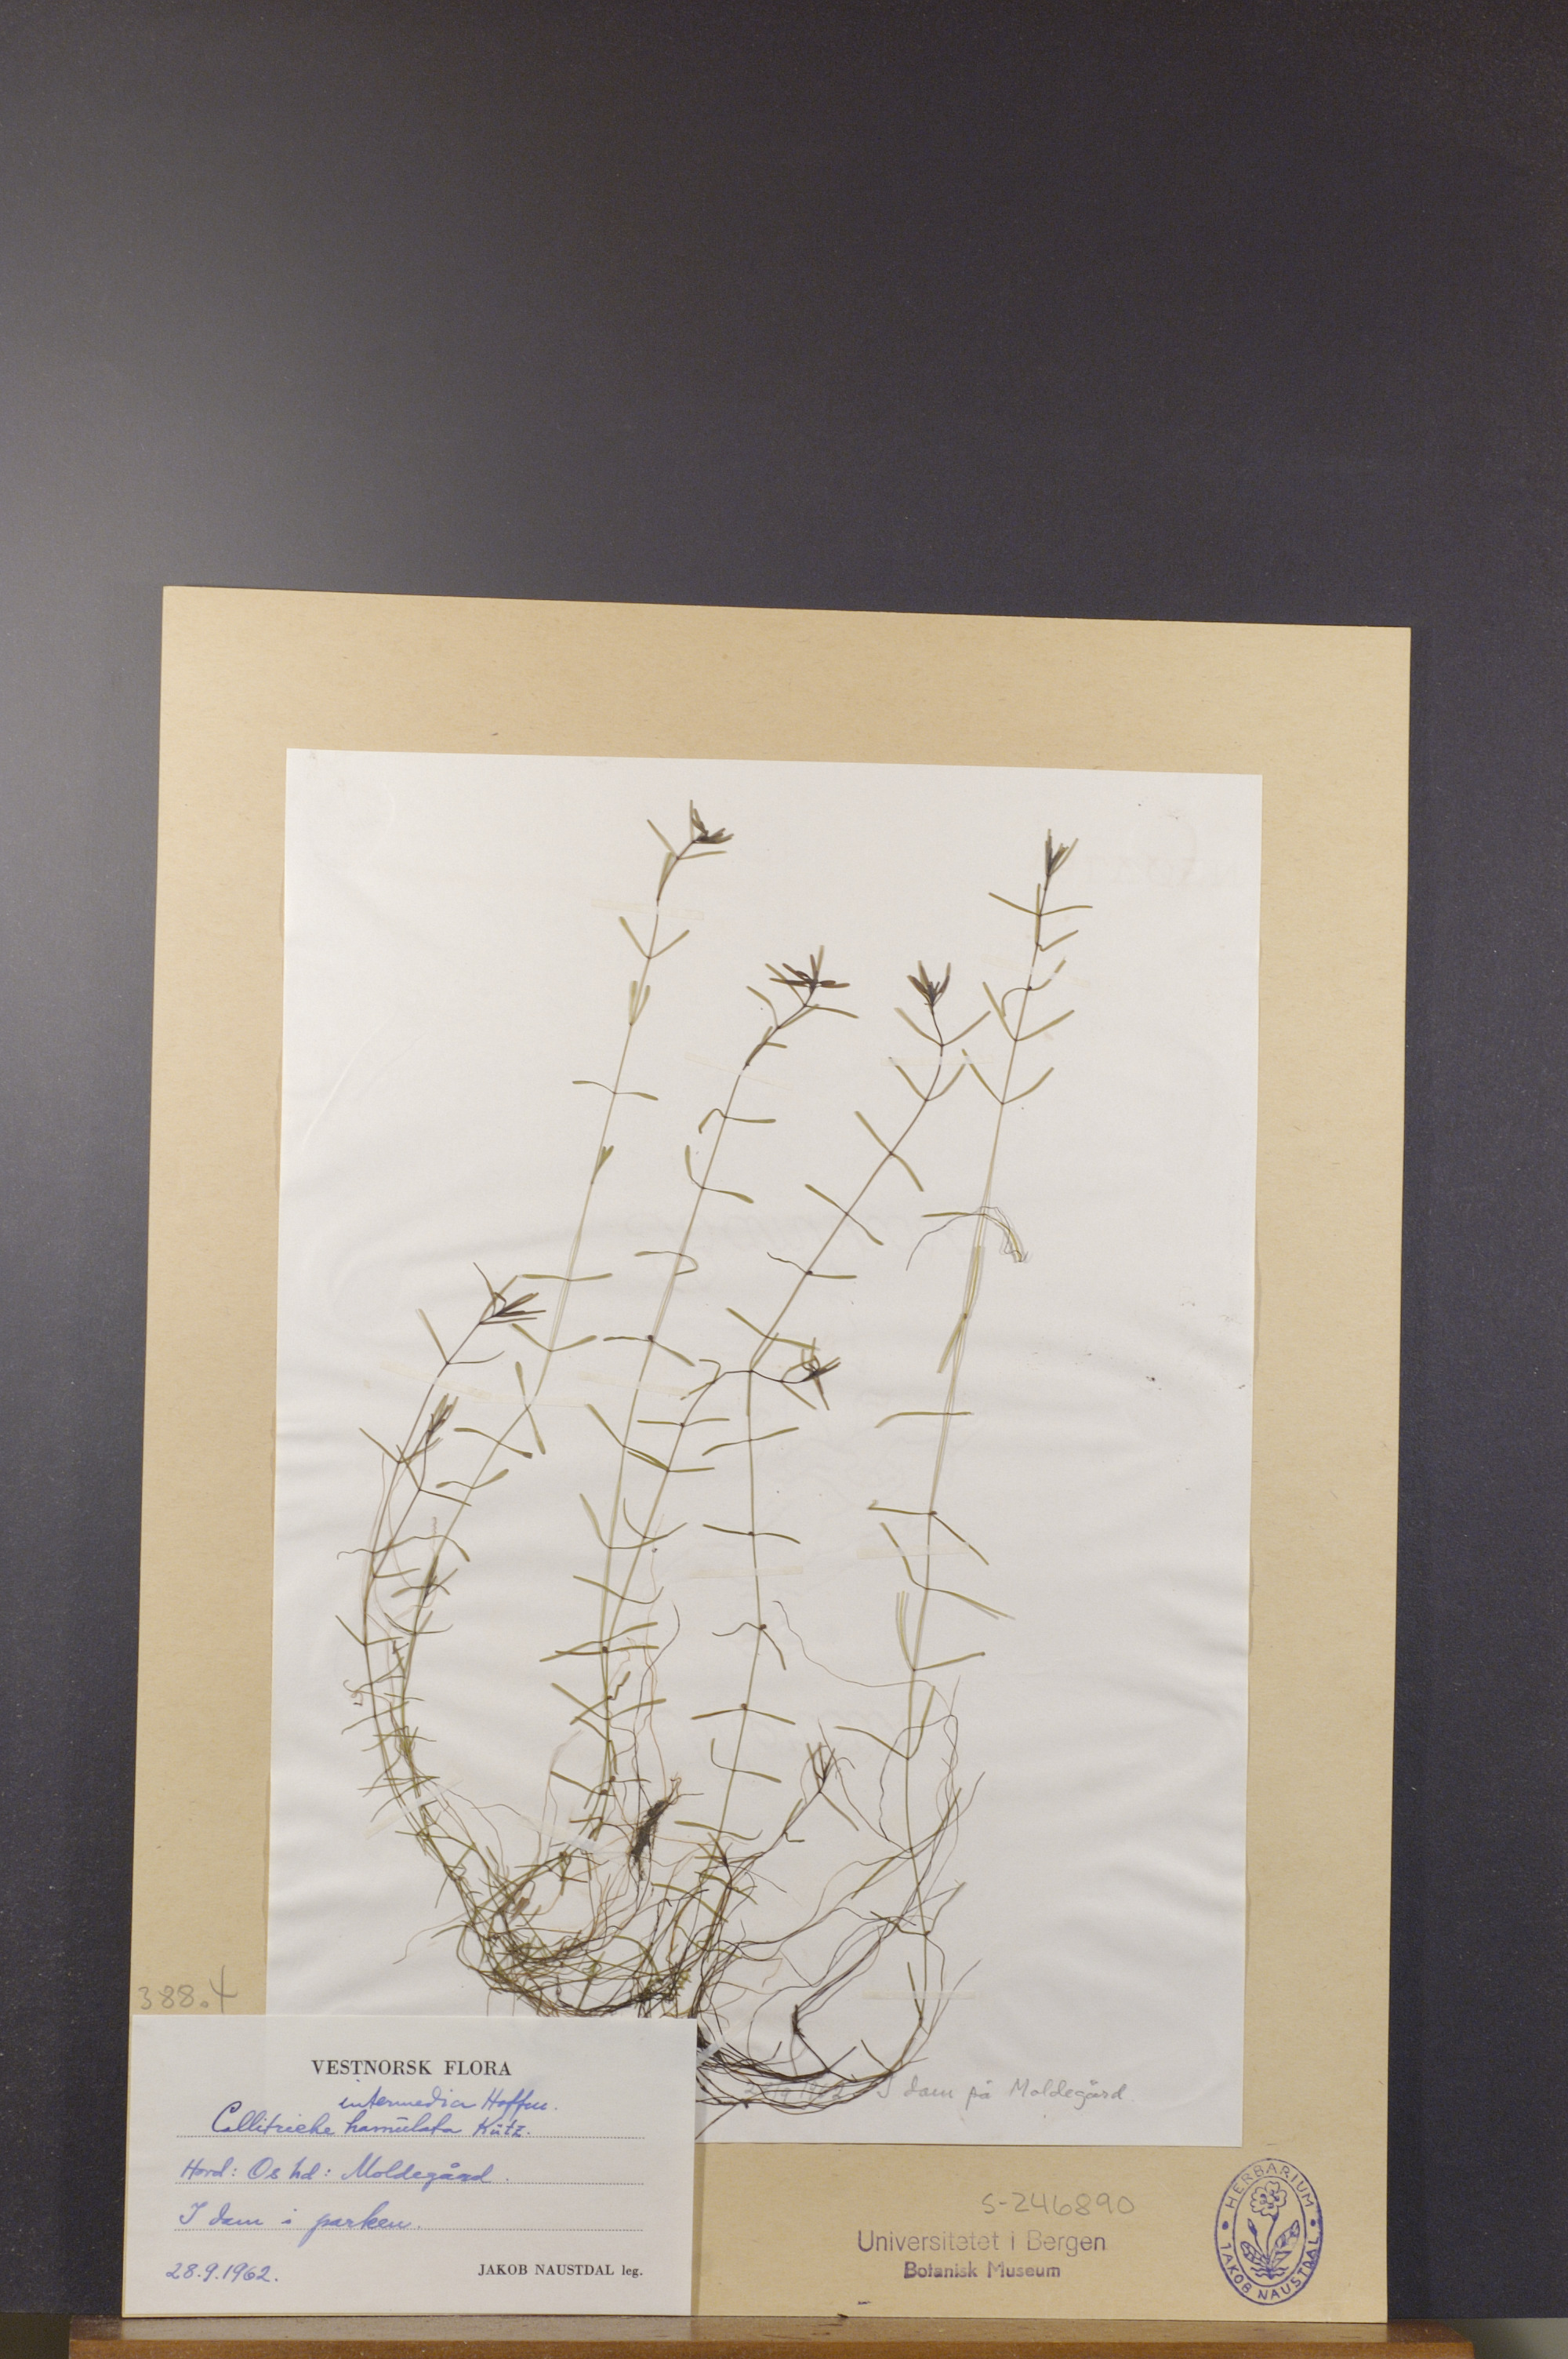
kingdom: Plantae
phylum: Tracheophyta
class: Magnoliopsida
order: Lamiales
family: Plantaginaceae
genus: Callitriche
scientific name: Callitriche hamulata
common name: Intermediate water-starwort
